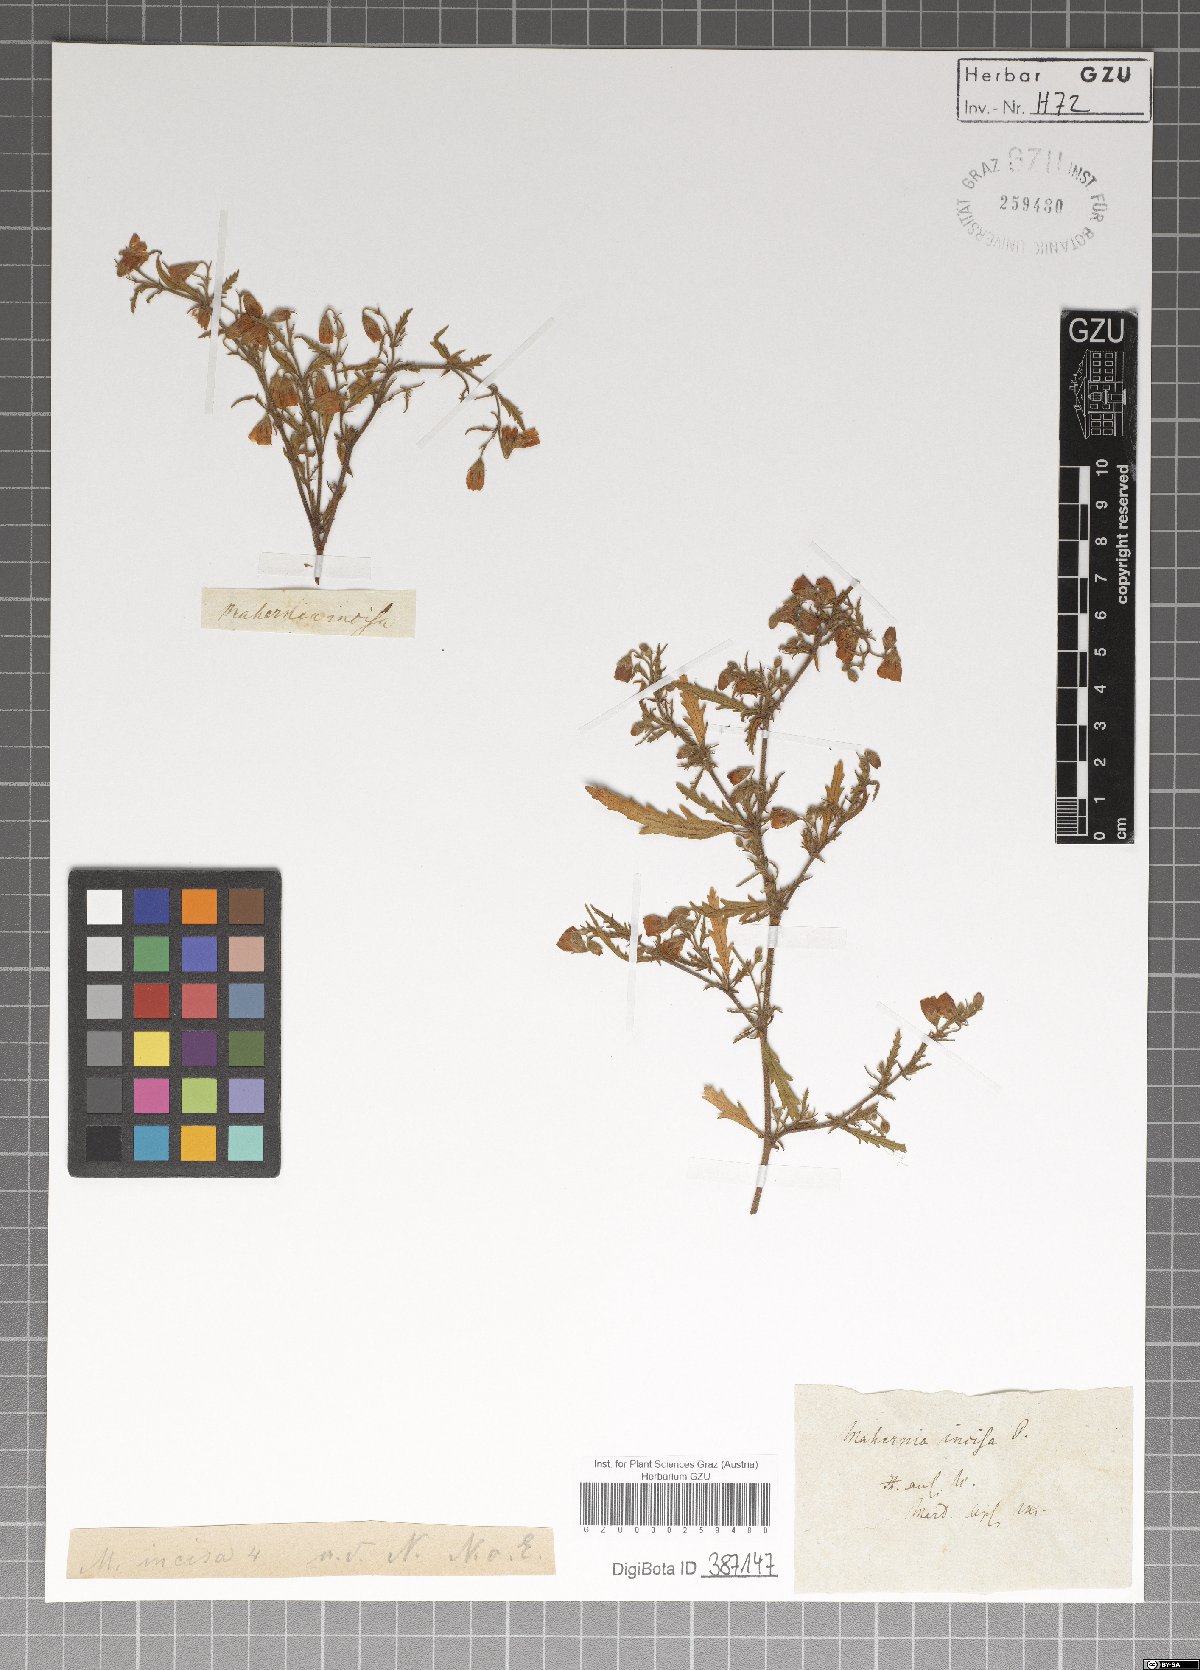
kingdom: Plantae
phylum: Tracheophyta
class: Magnoliopsida
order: Malvales
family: Malvaceae
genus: Hermannia
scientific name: Hermannia Mahernia incisa
